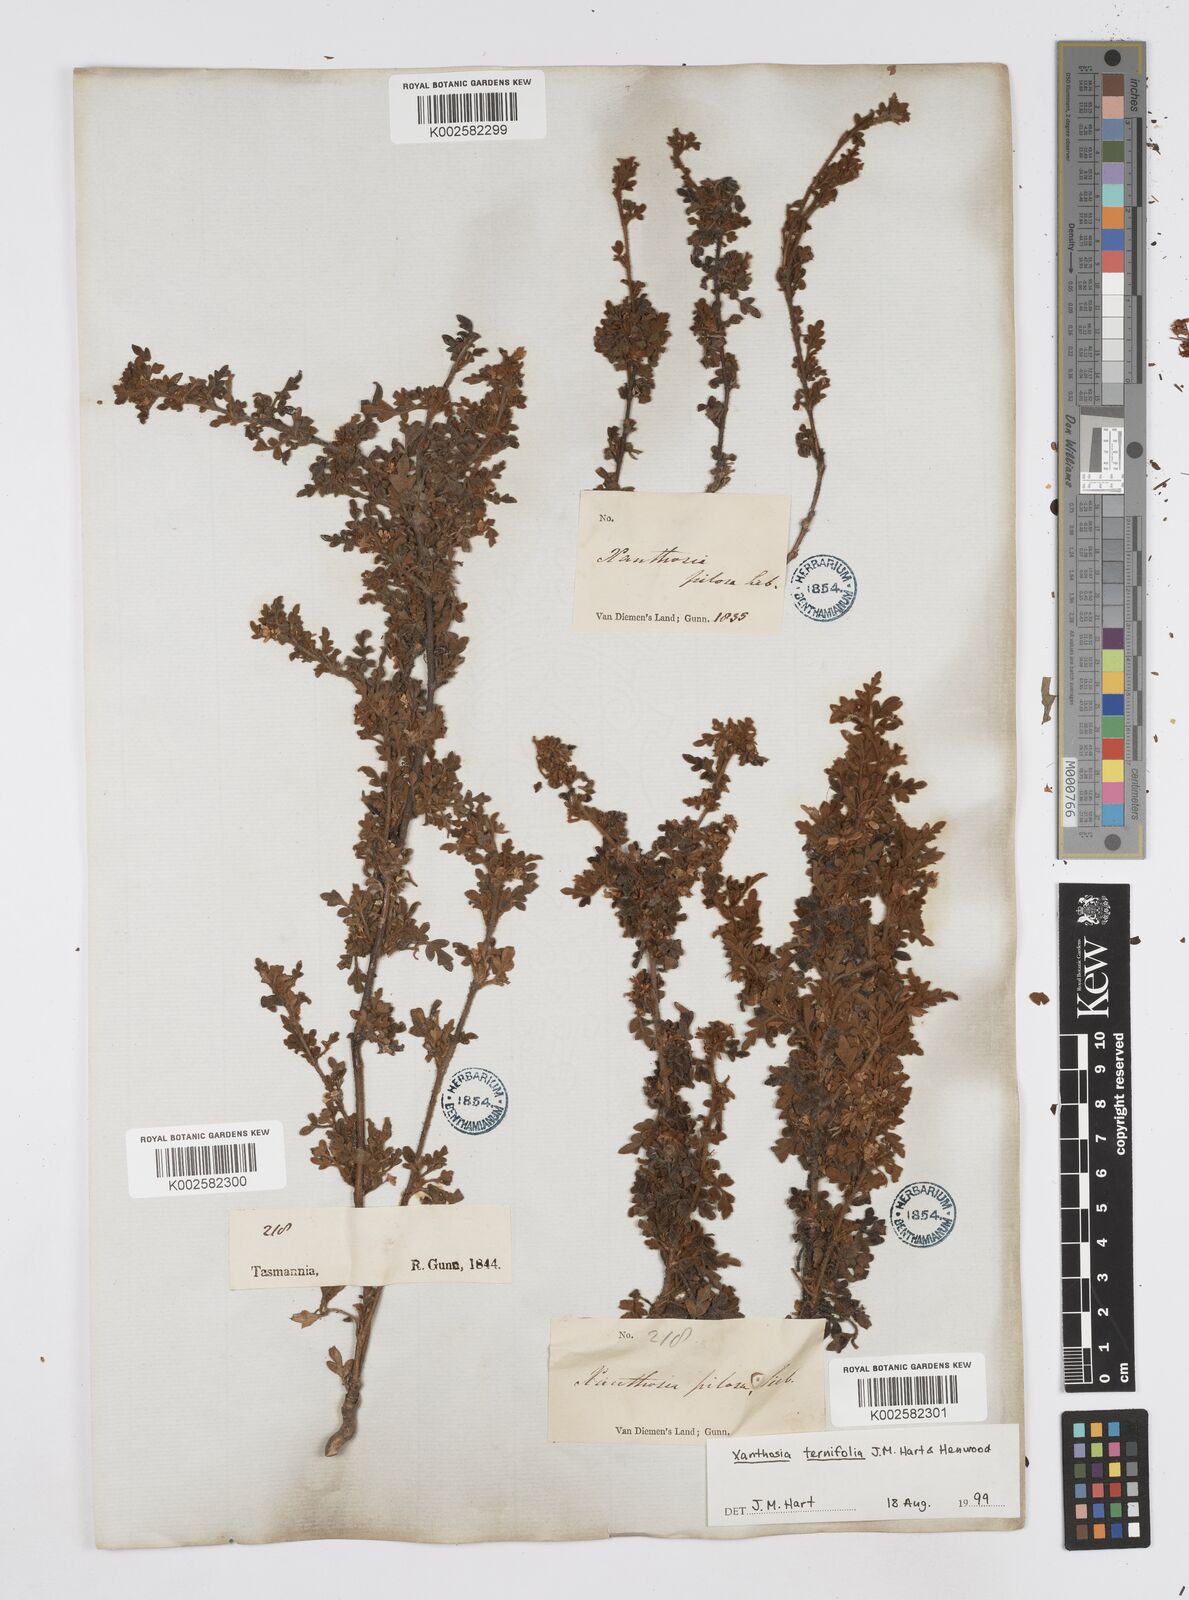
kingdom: Plantae
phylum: Tracheophyta
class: Magnoliopsida
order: Apiales
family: Apiaceae
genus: Xanthosia
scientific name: Xanthosia ternifolia
